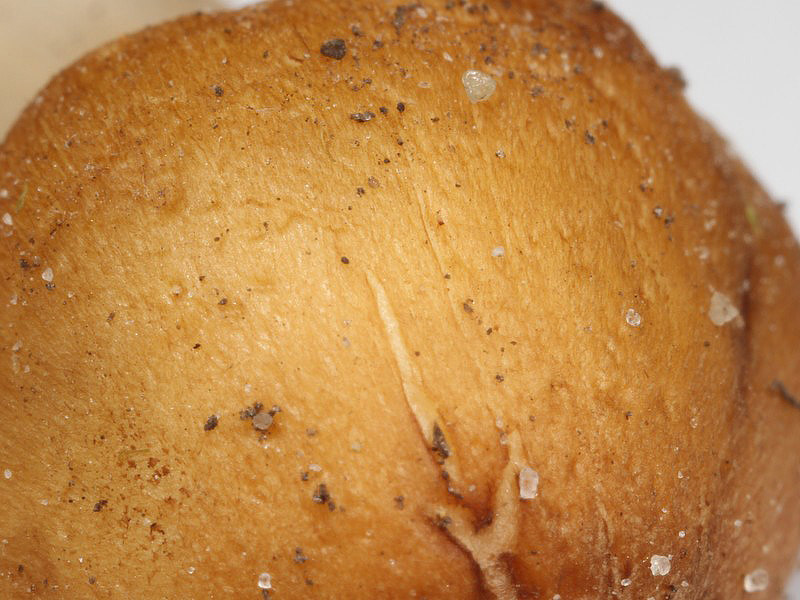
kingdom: Fungi
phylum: Basidiomycota
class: Agaricomycetes
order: Agaricales
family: Inocybaceae
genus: Inocybe
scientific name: Inocybe langei
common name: Langes trævlhat
